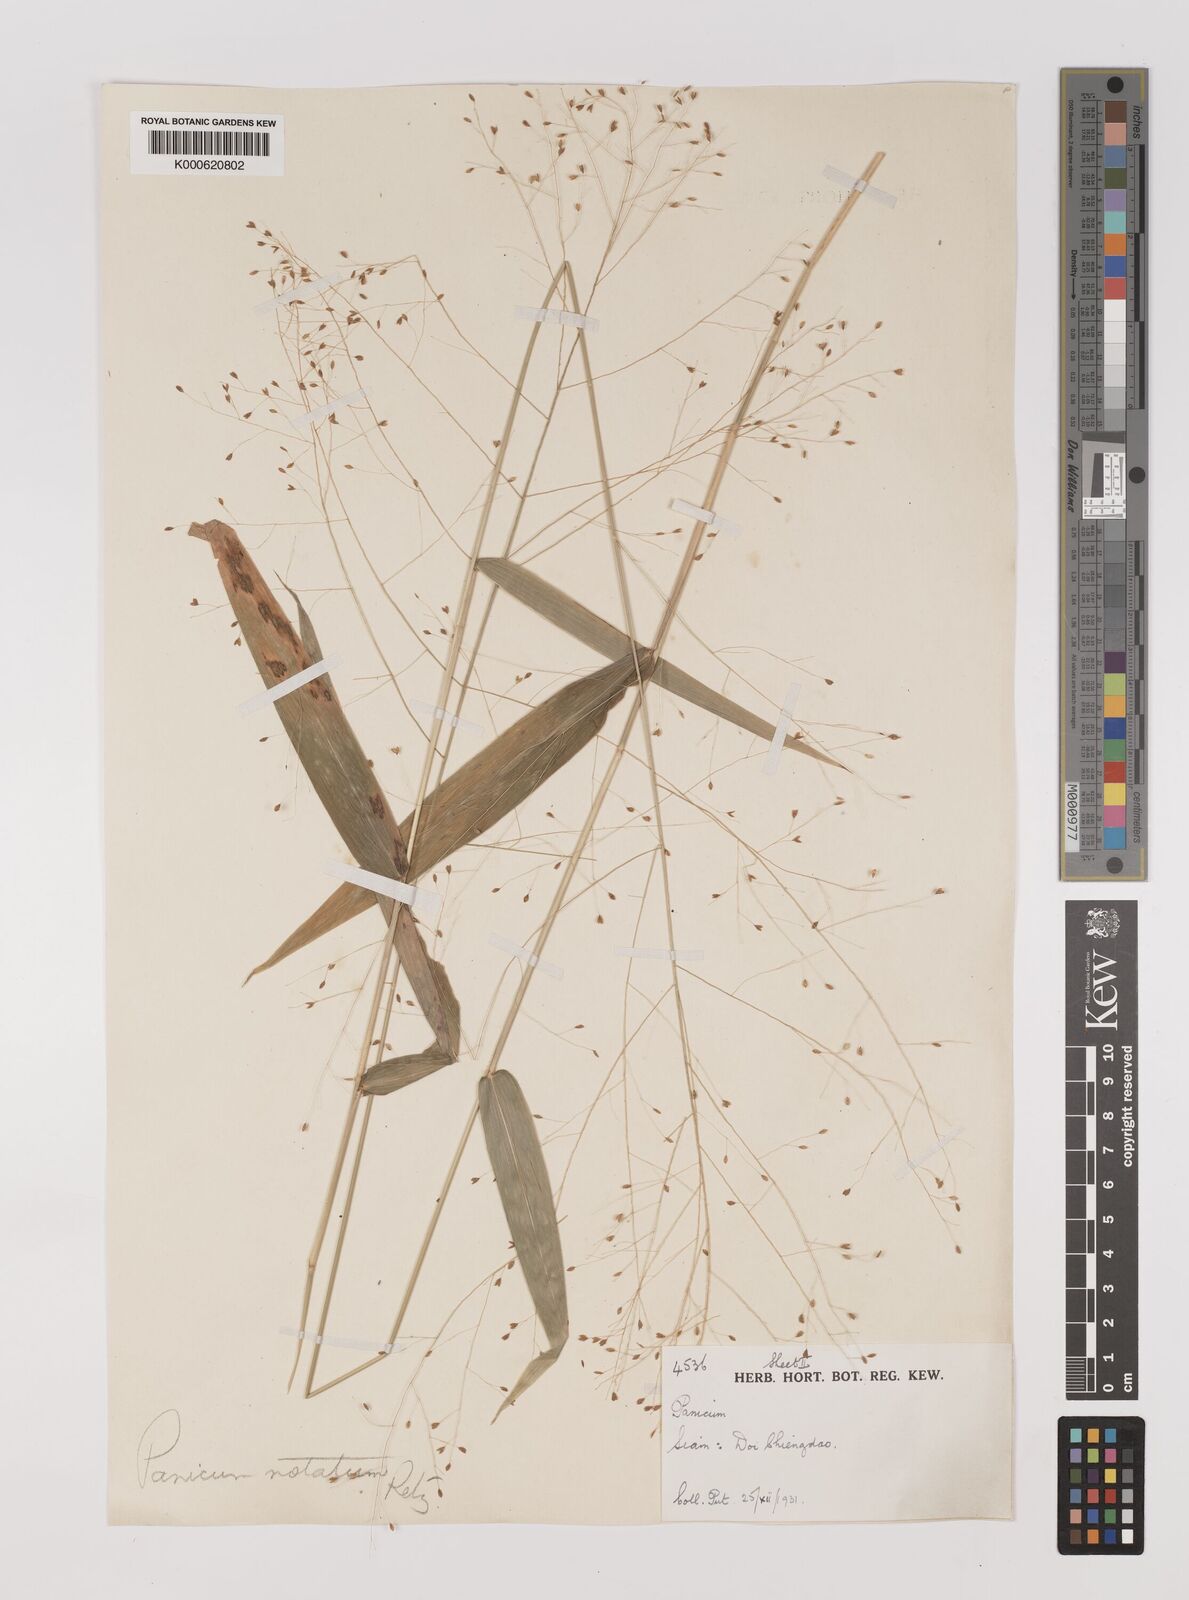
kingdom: Plantae
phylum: Tracheophyta
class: Liliopsida
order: Poales
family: Poaceae
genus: Panicum
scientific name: Panicum notatum
